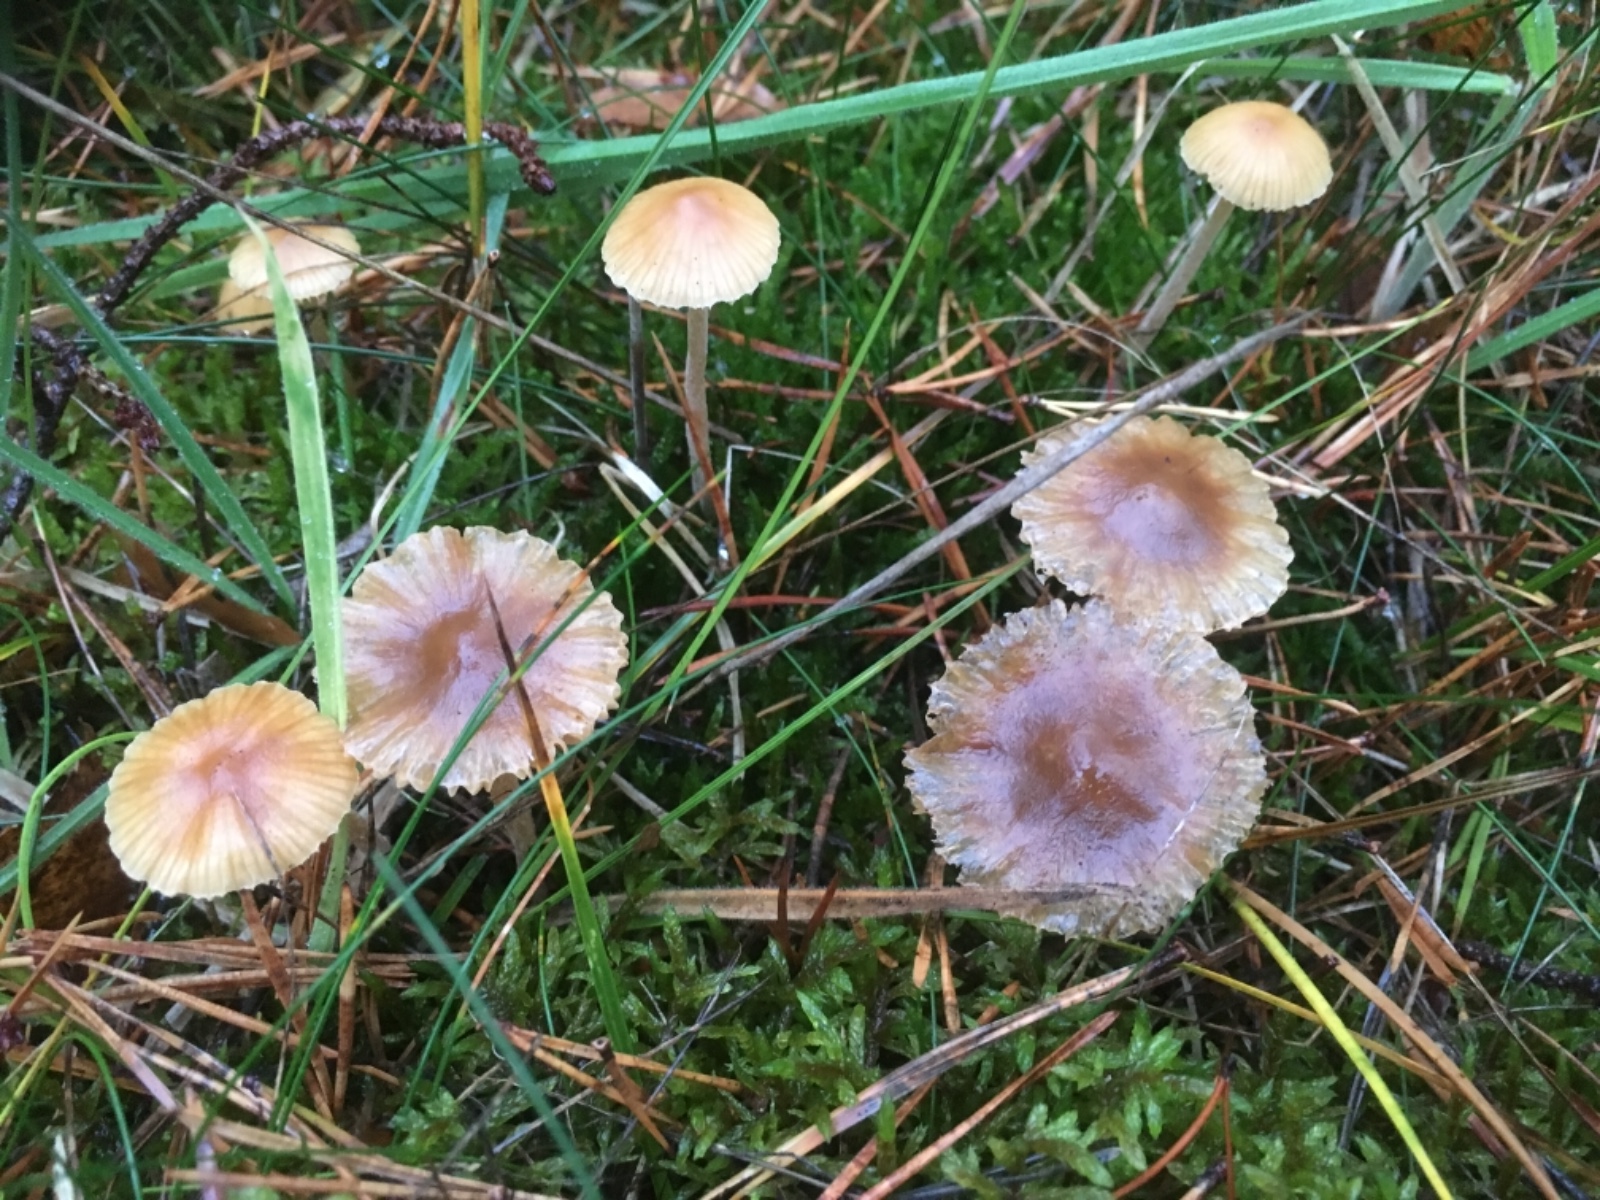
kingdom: Fungi
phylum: Basidiomycota
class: Agaricomycetes
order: Agaricales
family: Hymenogastraceae
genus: Galerina
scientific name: Galerina
